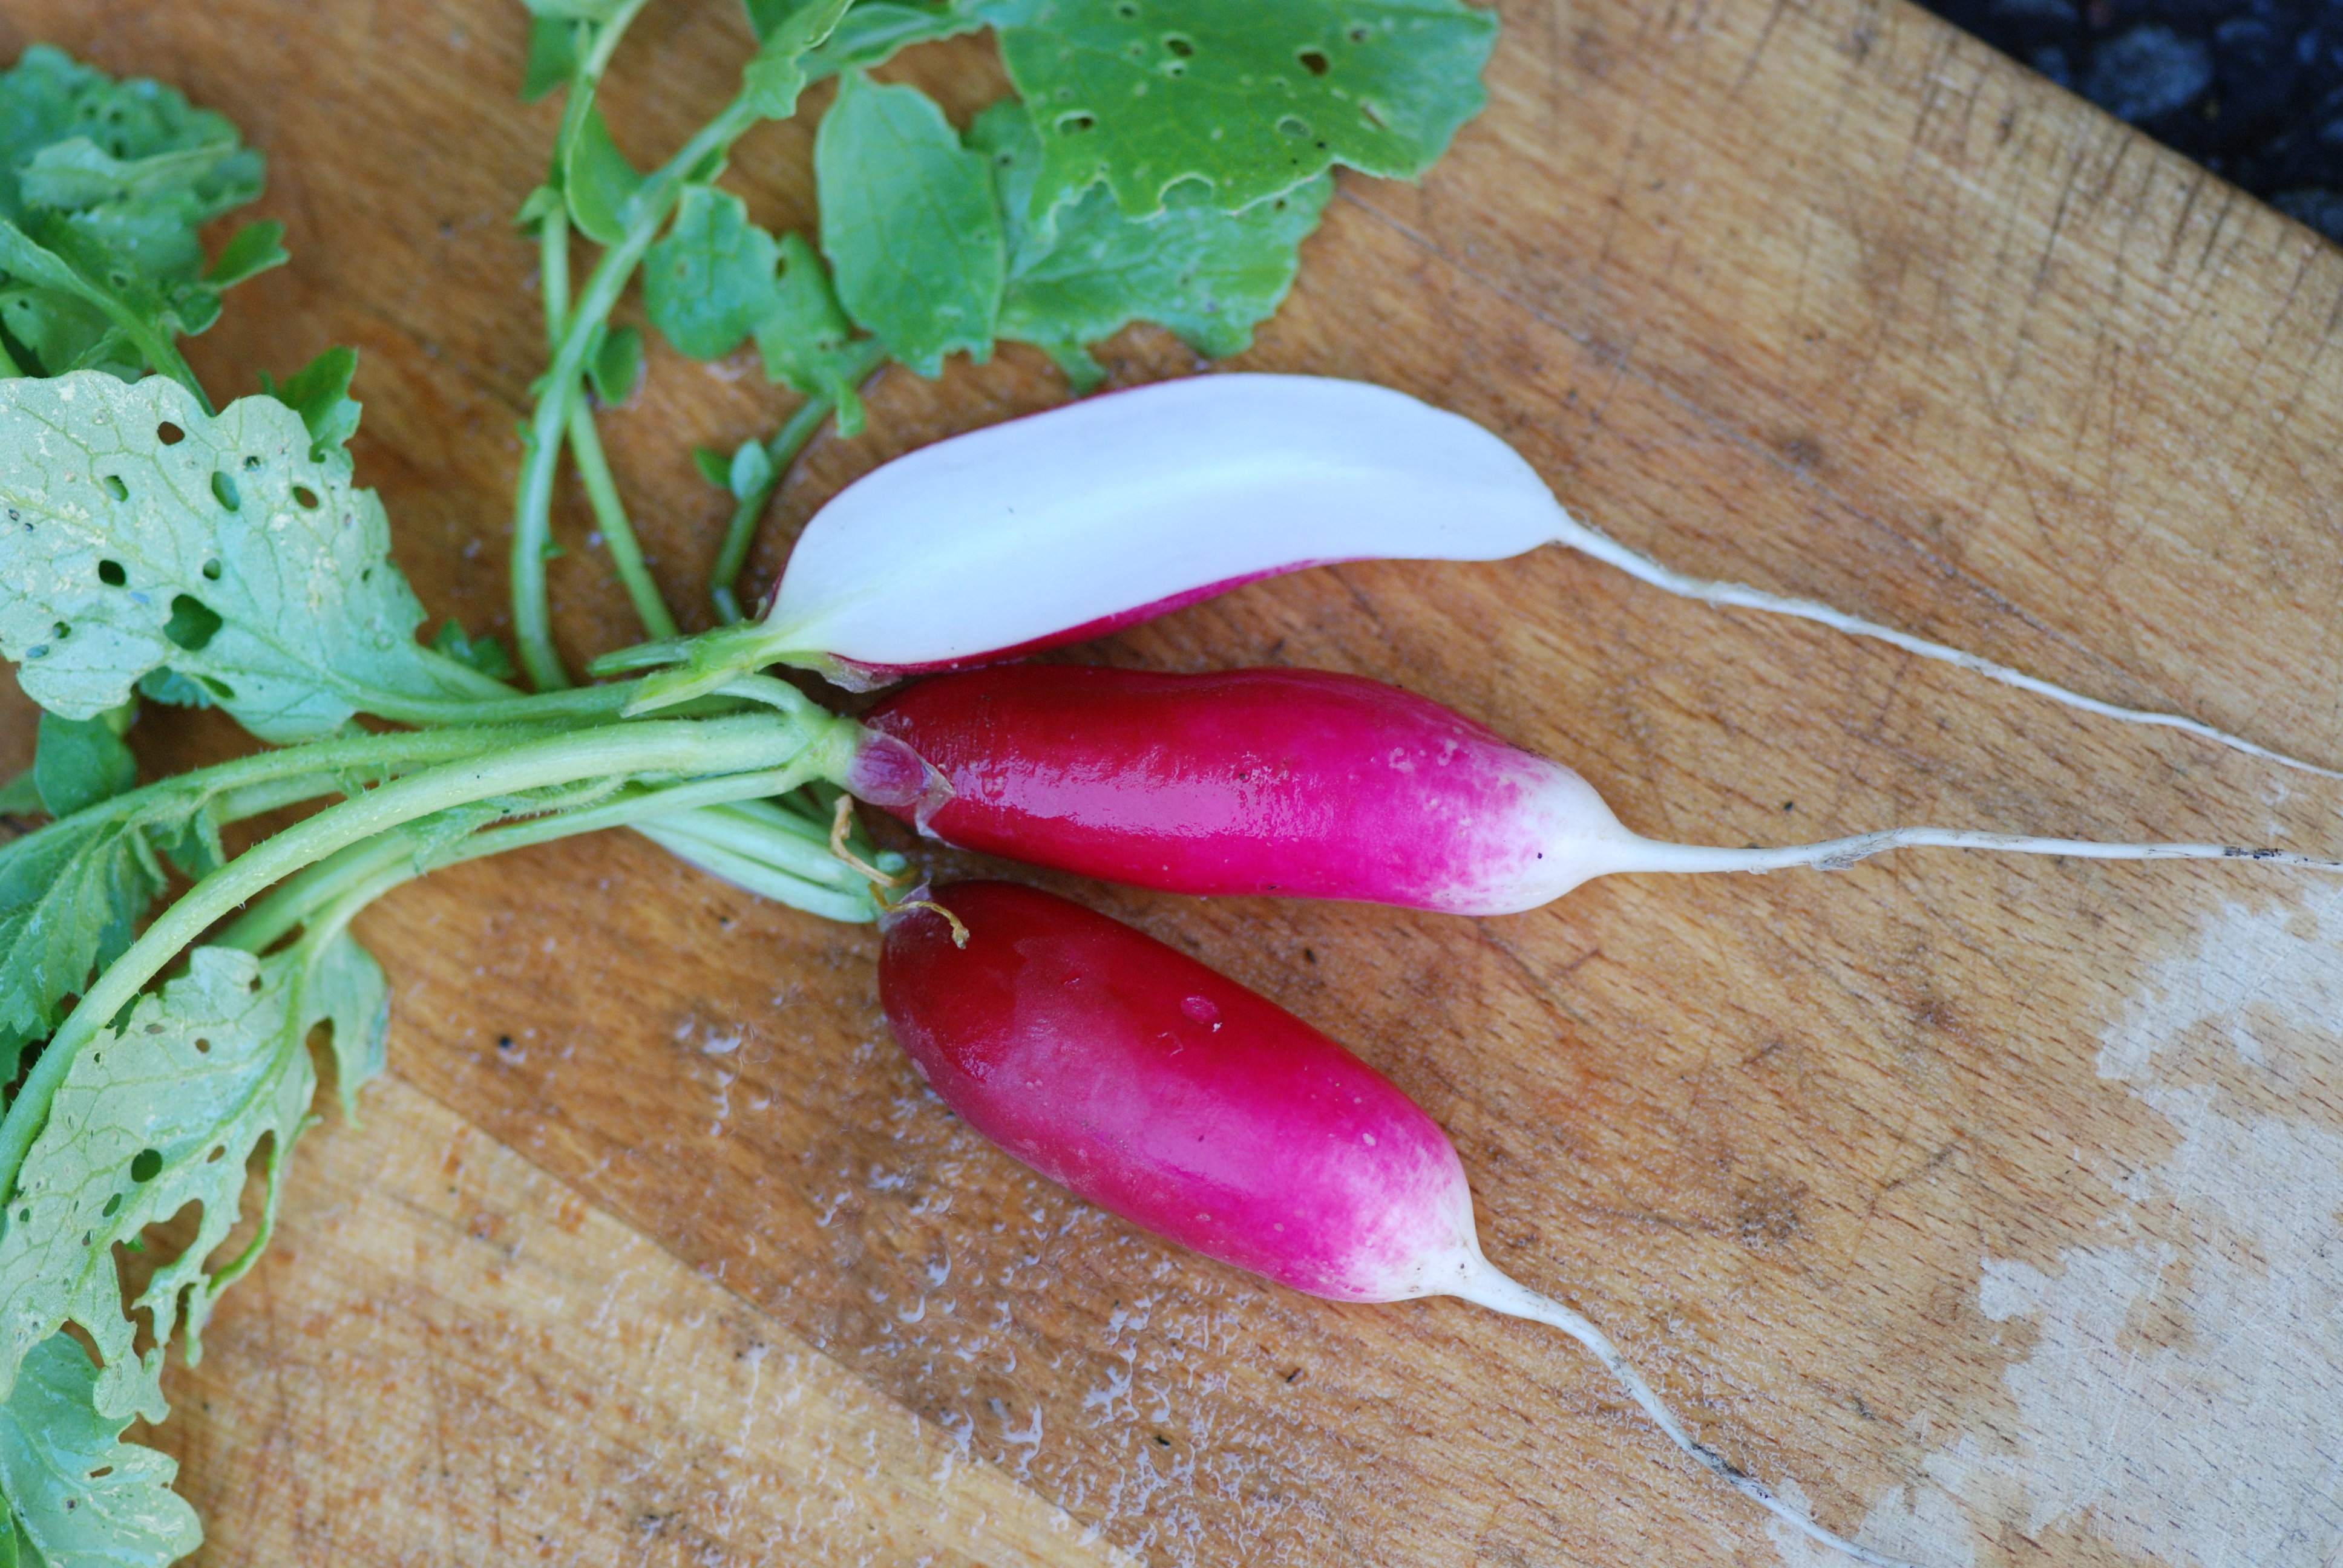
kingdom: Plantae
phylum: Tracheophyta
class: Magnoliopsida
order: Brassicales
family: Brassicaceae
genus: Raphanus
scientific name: Raphanus sativus
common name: Cultivated radish
